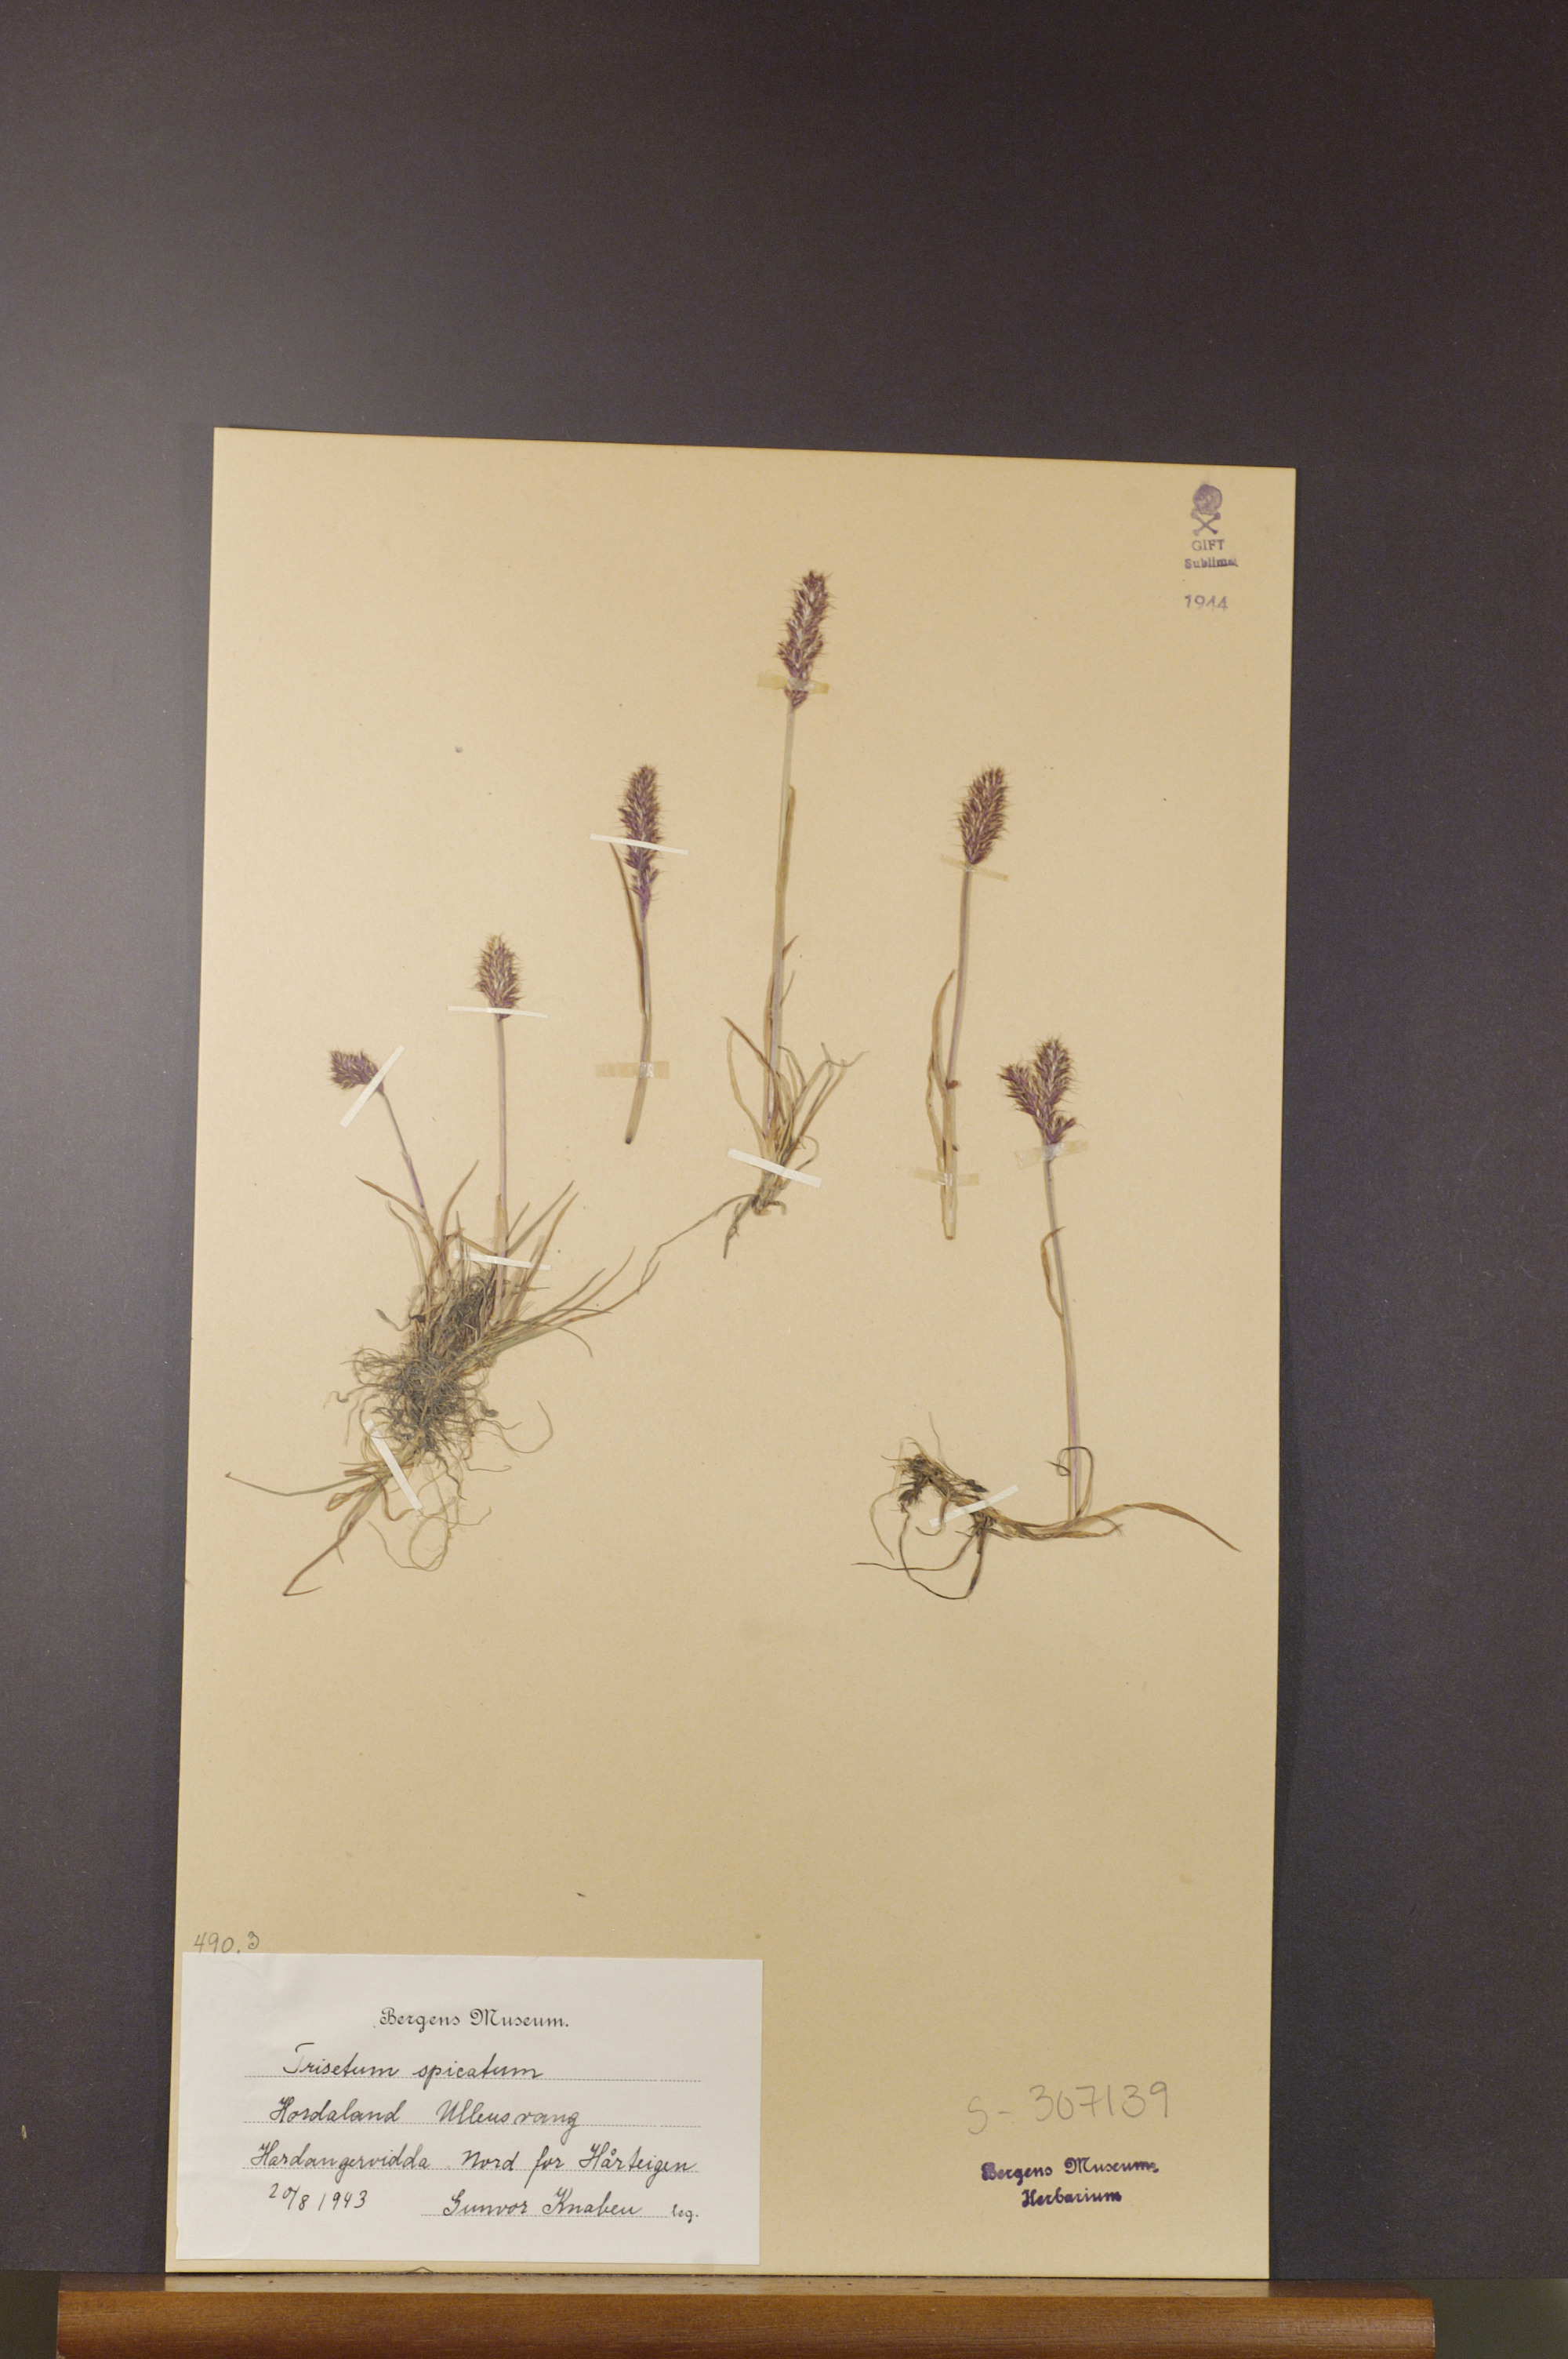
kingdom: Plantae
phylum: Tracheophyta
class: Liliopsida
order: Poales
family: Poaceae
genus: Koeleria
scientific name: Koeleria spicata
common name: Mountain trisetum
